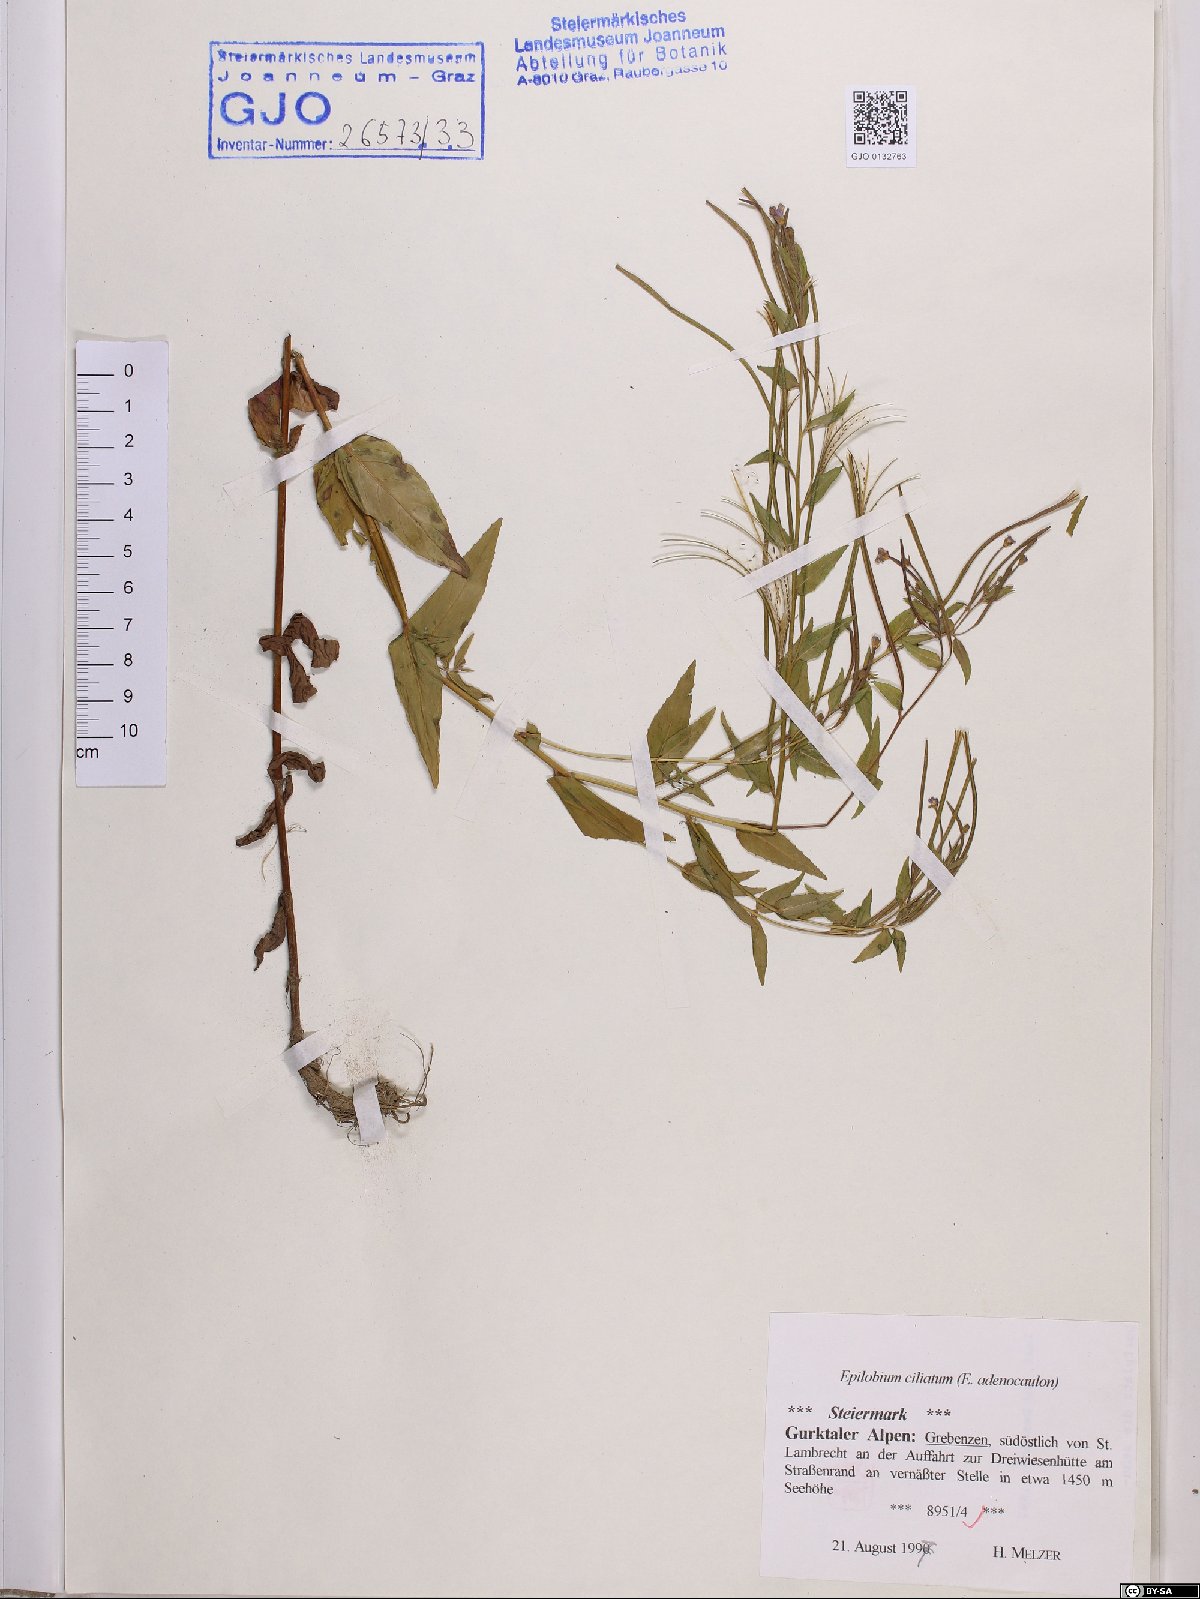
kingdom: Plantae
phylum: Tracheophyta
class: Magnoliopsida
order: Myrtales
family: Onagraceae
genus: Epilobium
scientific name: Epilobium ciliatum
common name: American willowherb
